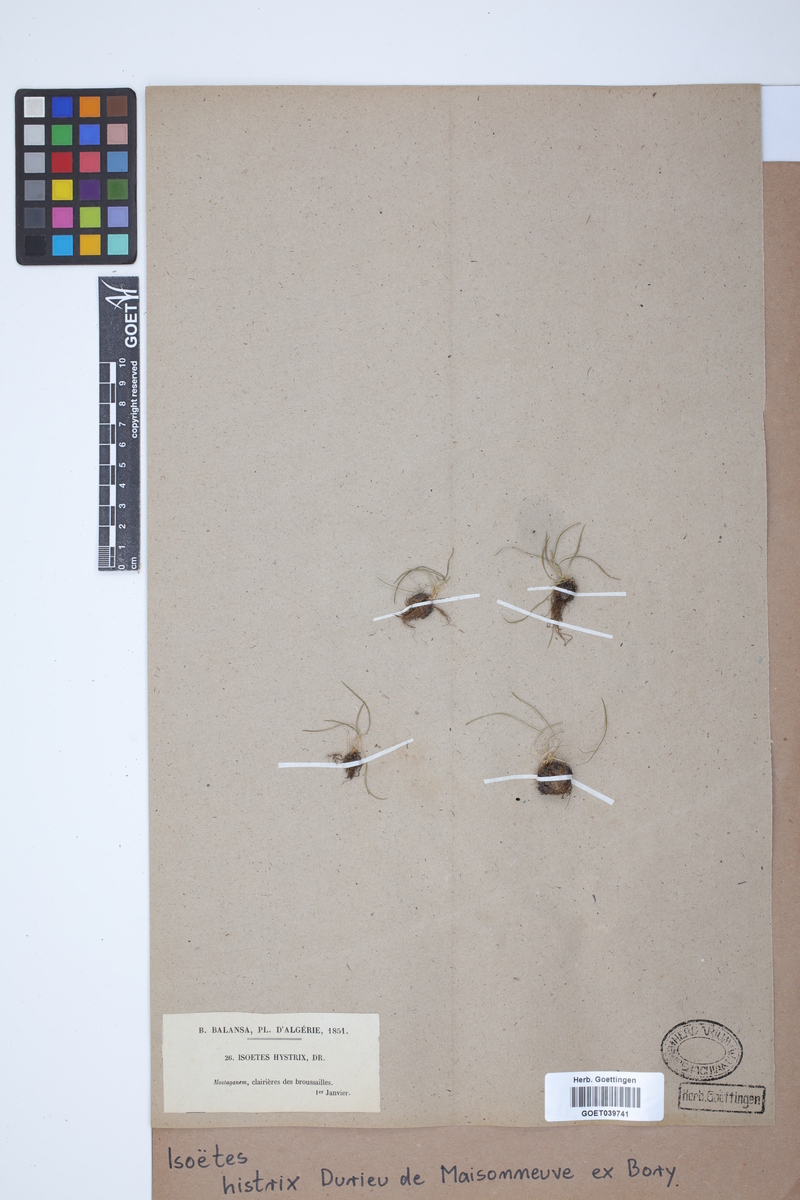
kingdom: Plantae
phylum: Tracheophyta
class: Lycopodiopsida
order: Isoetales
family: Isoetaceae
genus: Isoetes
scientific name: Isoetes histrix
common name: Land quillwort
